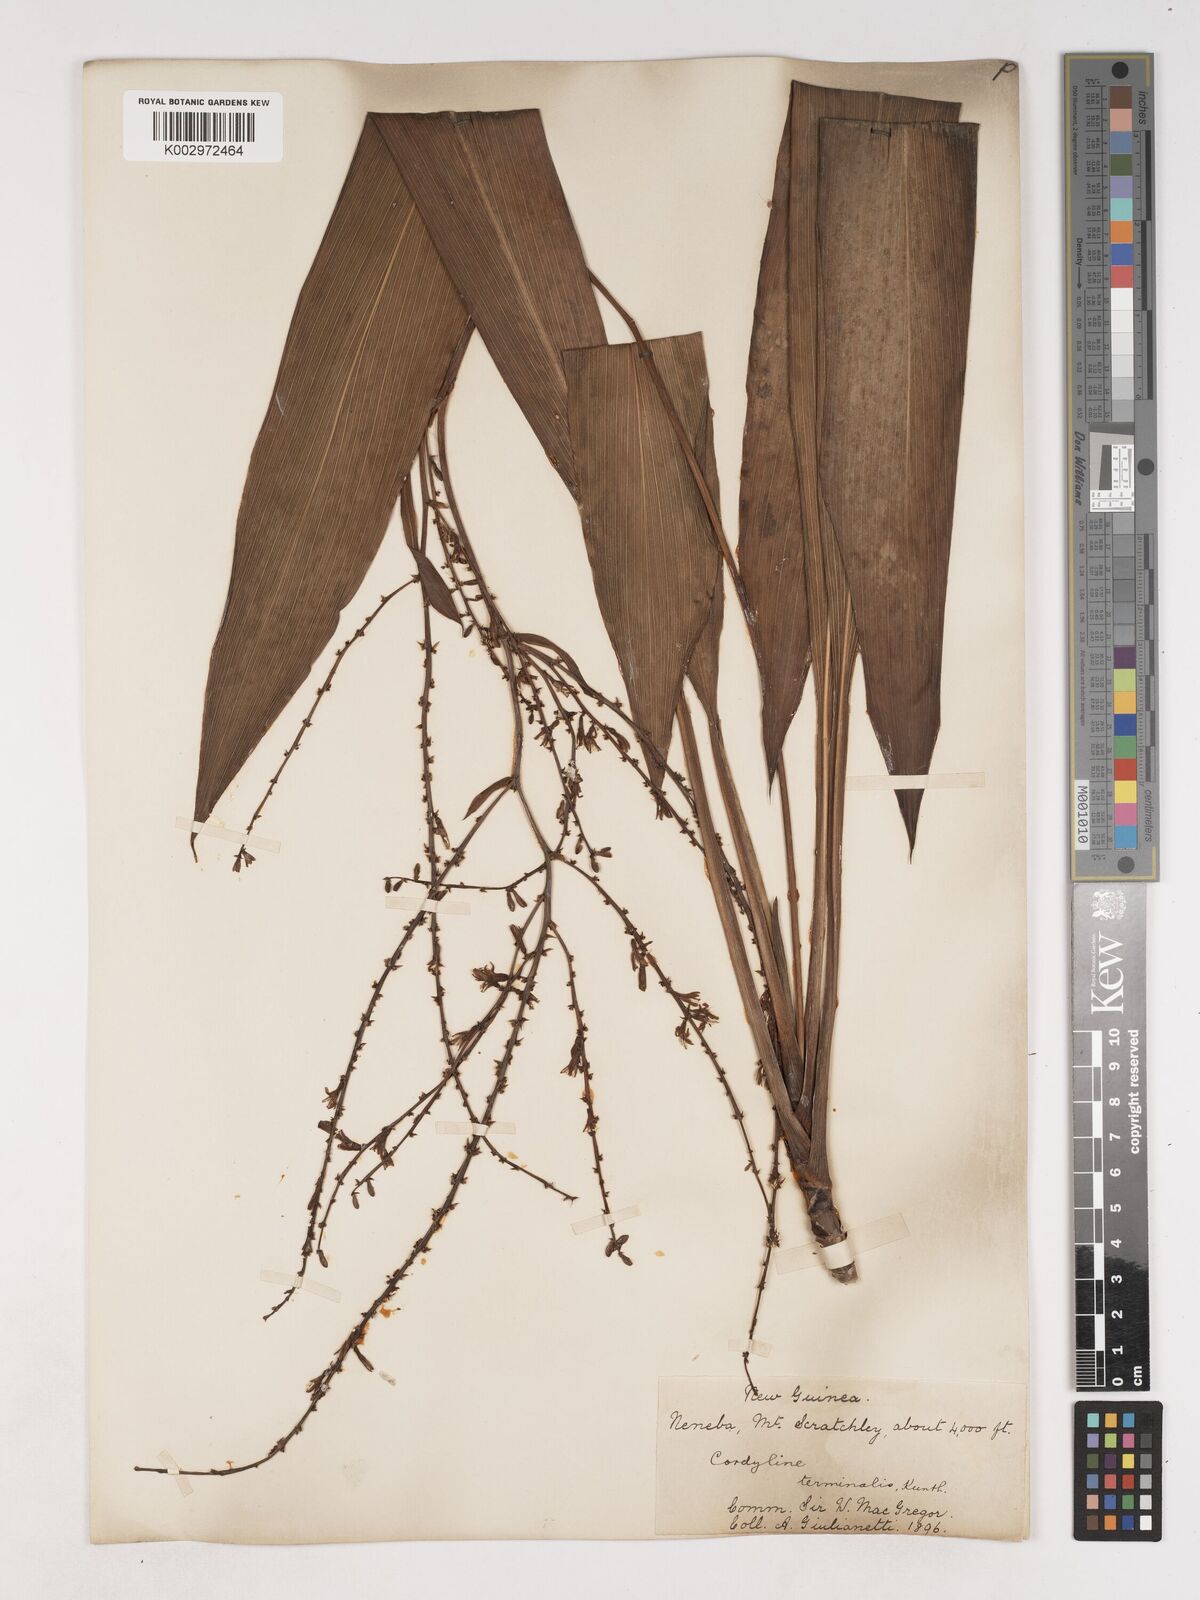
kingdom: Plantae
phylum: Tracheophyta
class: Liliopsida
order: Asparagales
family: Asparagaceae
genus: Cordyline
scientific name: Cordyline fruticosa
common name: Good-luck-plant
